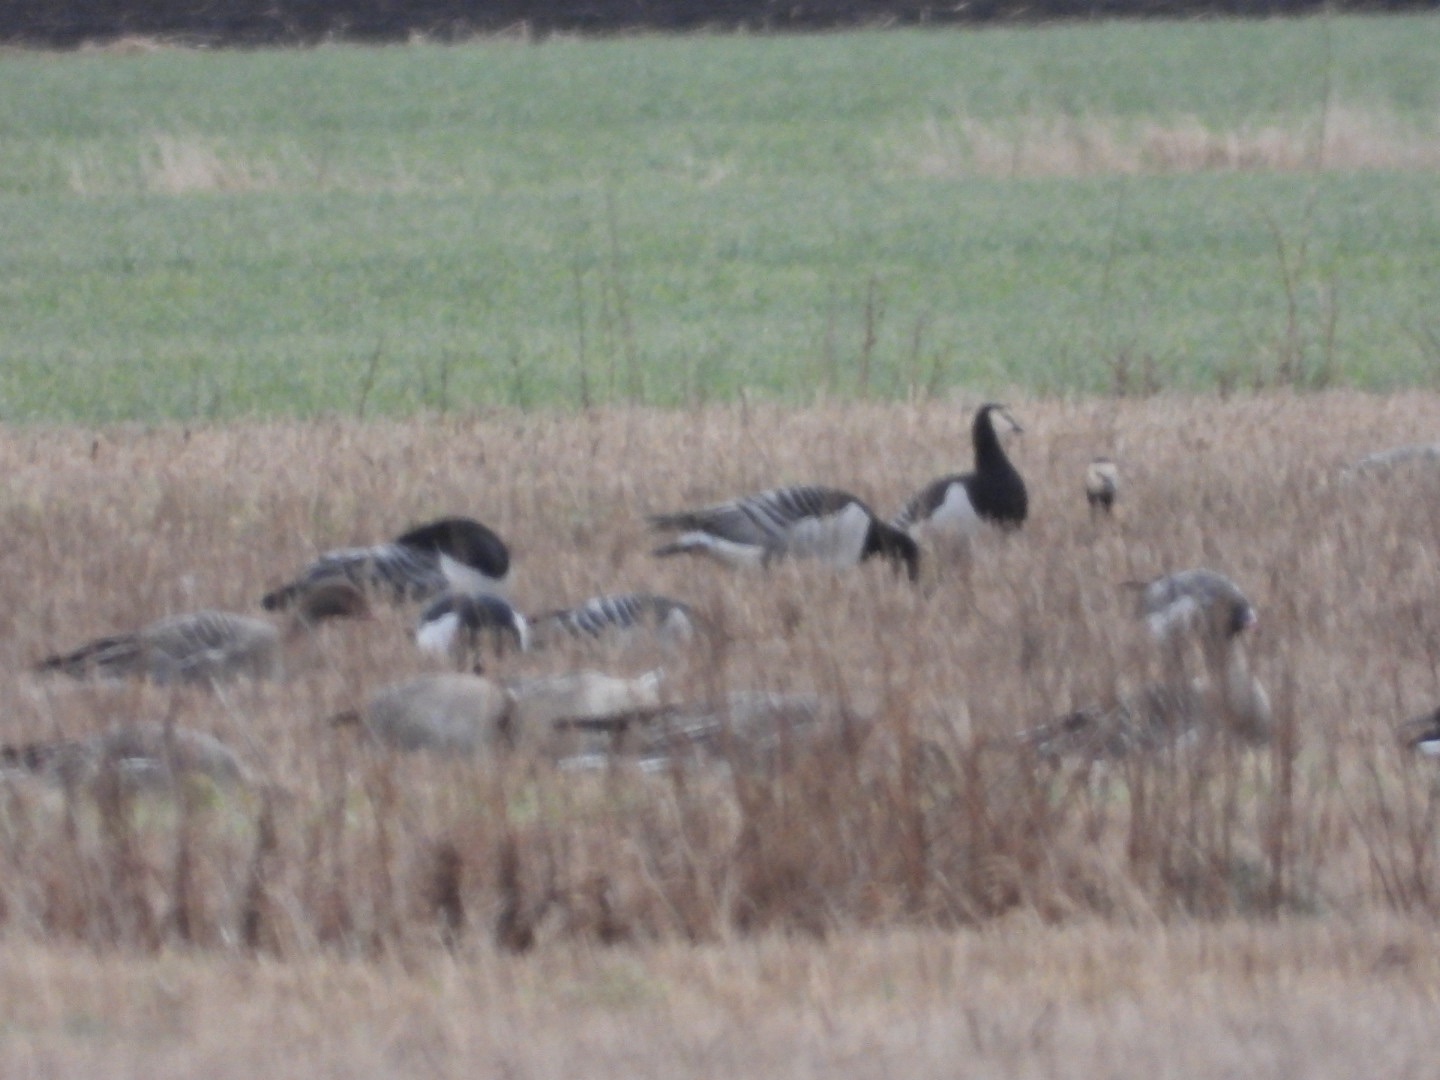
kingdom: Animalia
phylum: Chordata
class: Aves
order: Anseriformes
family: Anatidae
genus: Branta
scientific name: Branta leucopsis
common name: Bramgås
